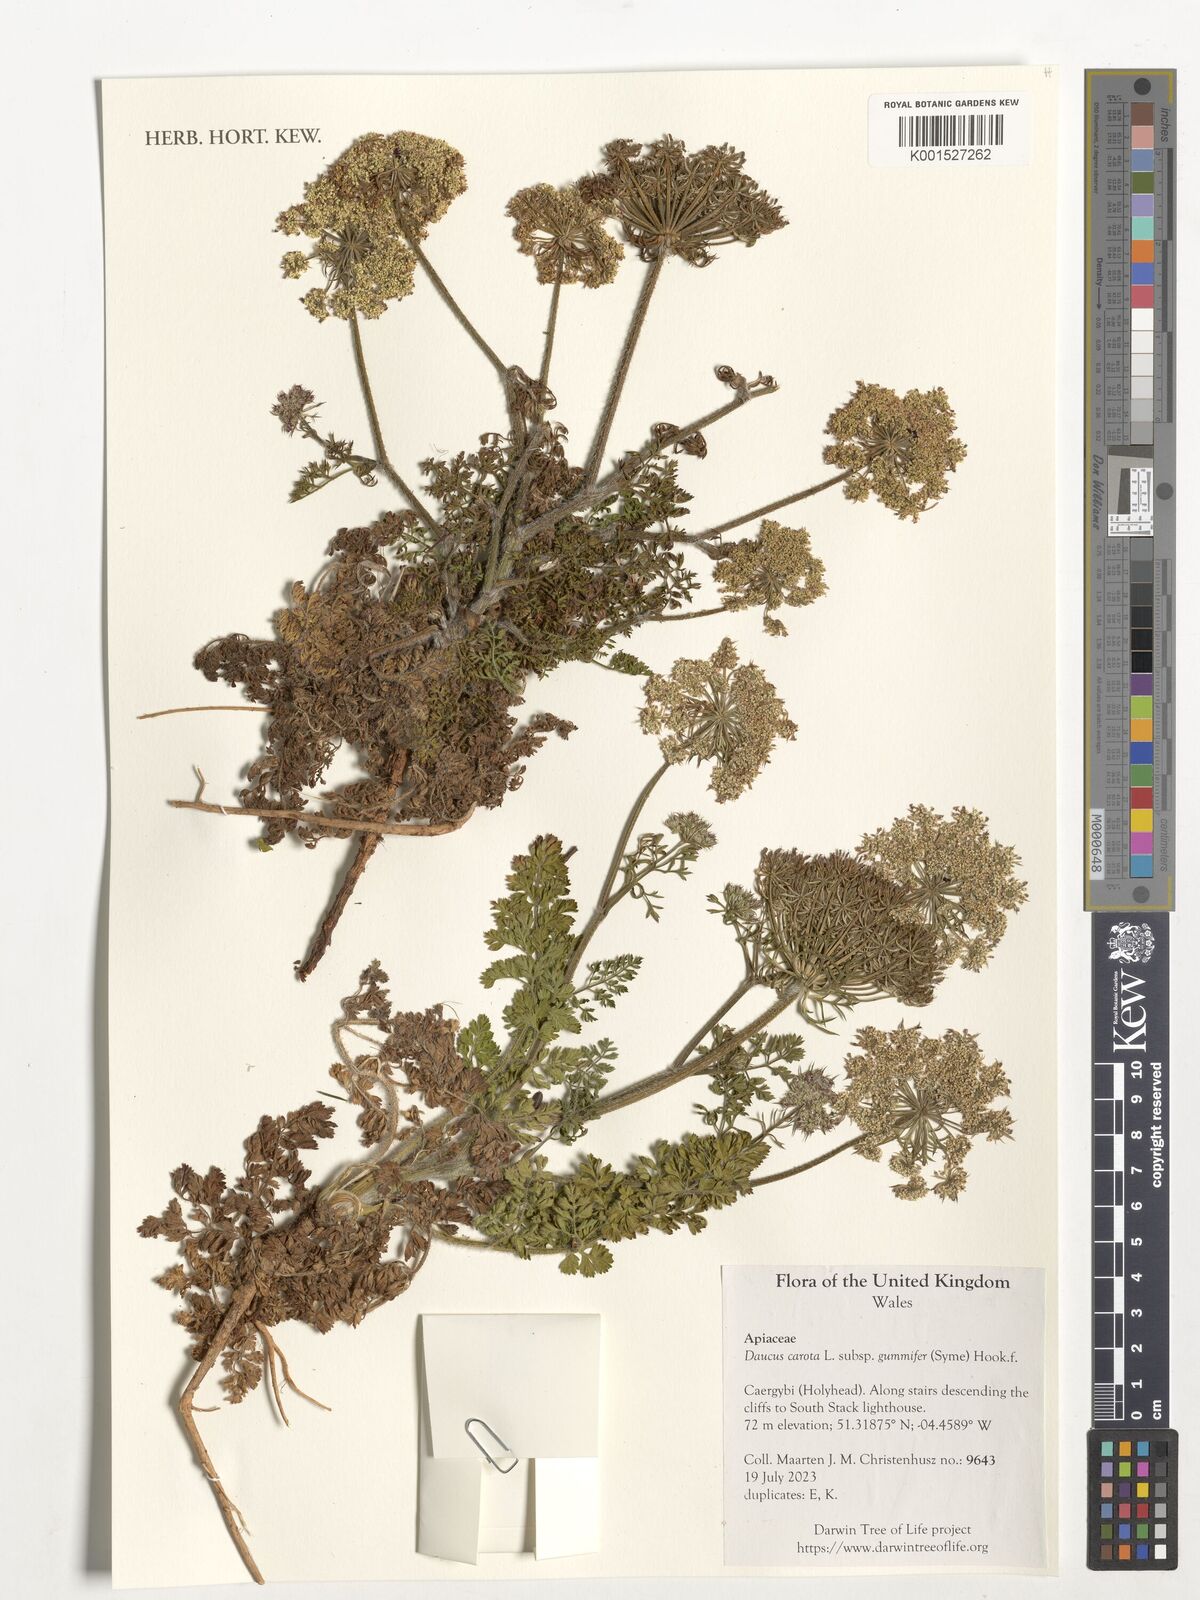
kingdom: Plantae
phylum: Tracheophyta
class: Magnoliopsida
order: Apiales
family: Apiaceae
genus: Daucus
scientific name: Daucus carota
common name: Wild carrot
